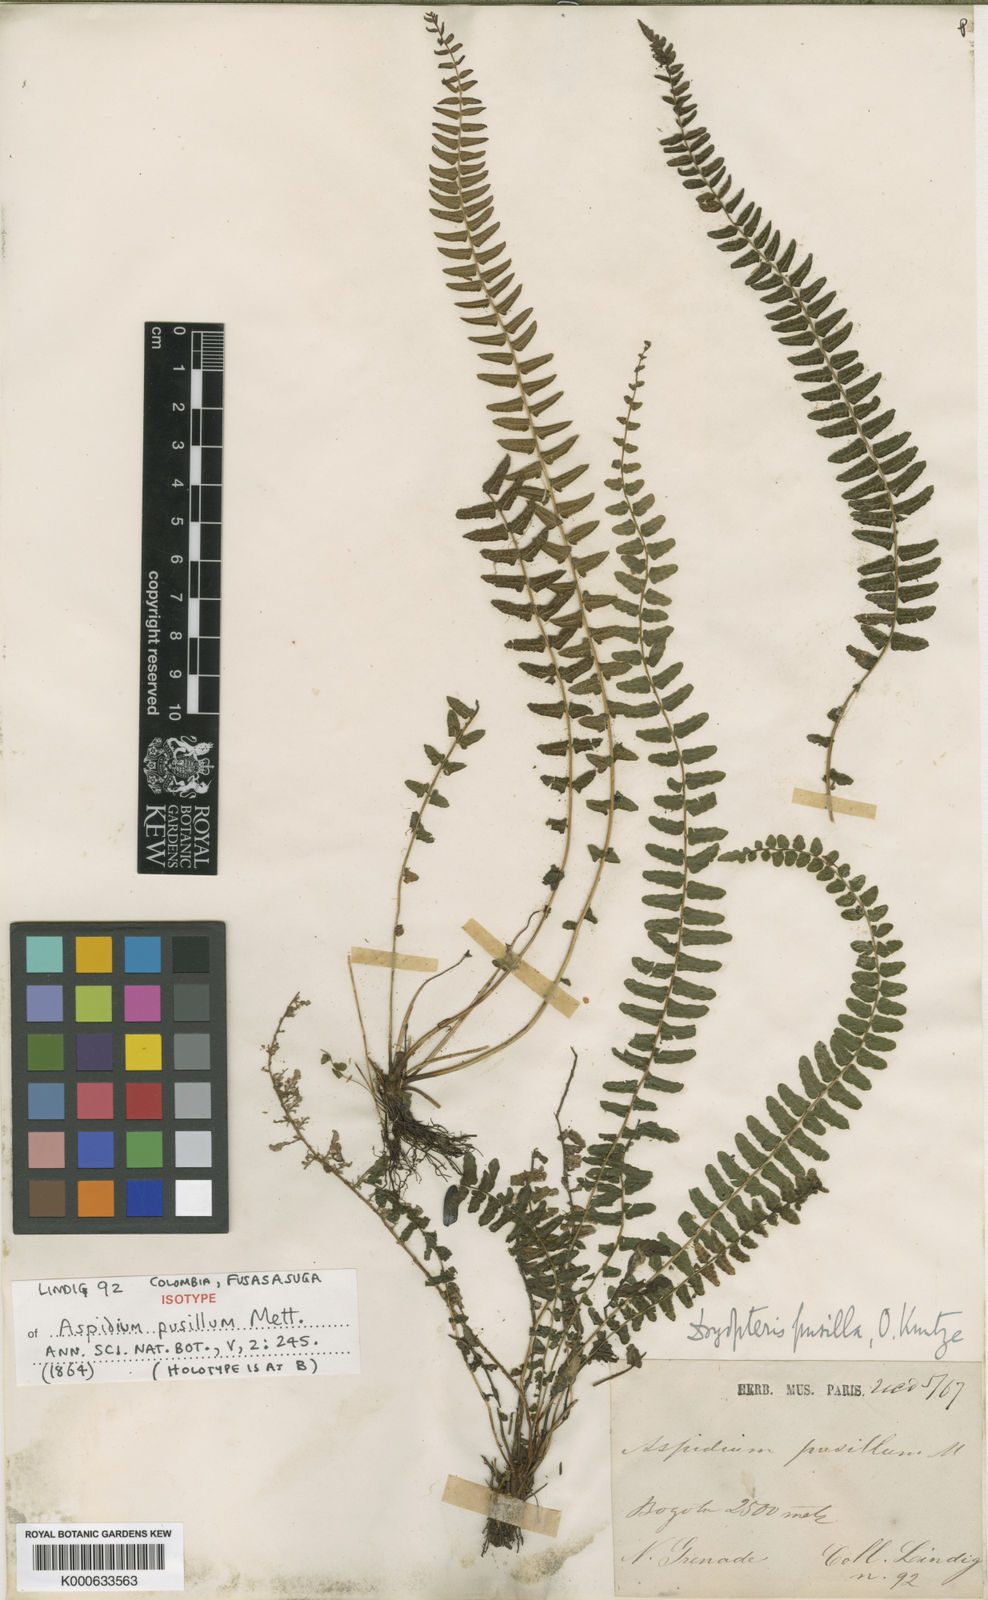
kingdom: Plantae
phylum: Tracheophyta
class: Polypodiopsida
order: Polypodiales
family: Thelypteridaceae
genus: Amauropelta
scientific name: Amauropelta pusilla
